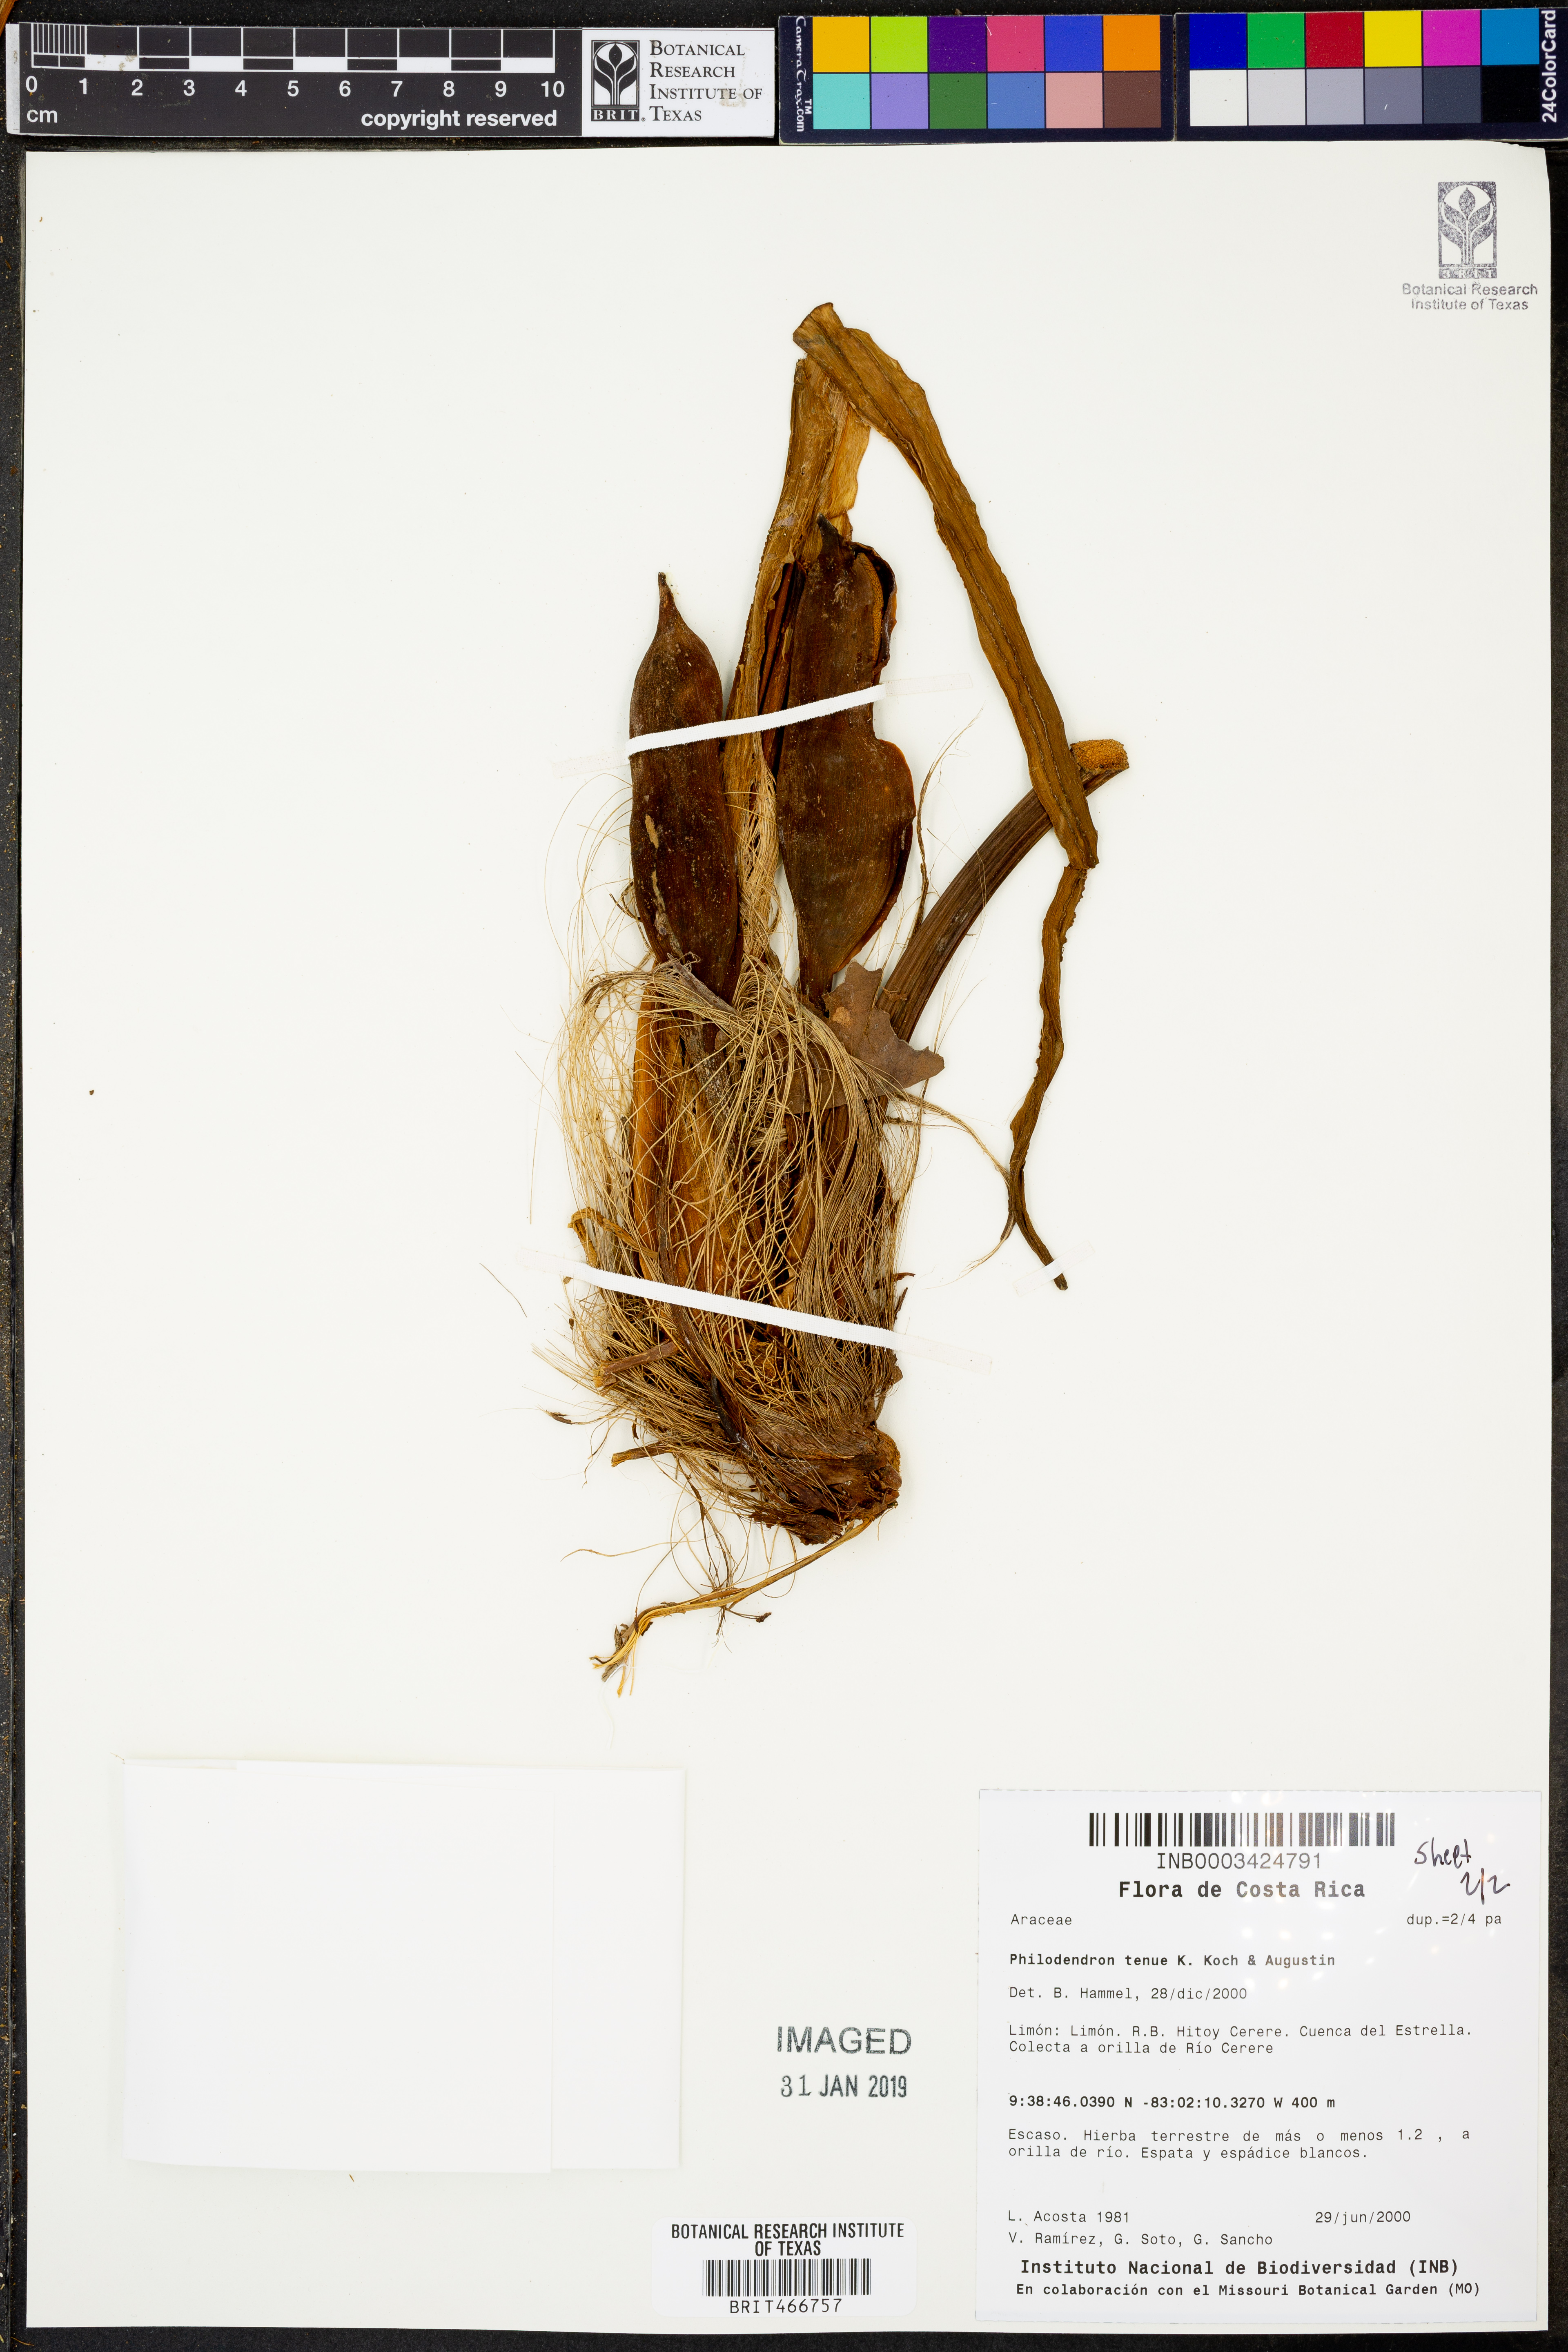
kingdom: Plantae
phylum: Tracheophyta
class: Liliopsida
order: Alismatales
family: Araceae
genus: Philodendron
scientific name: Philodendron tenue
